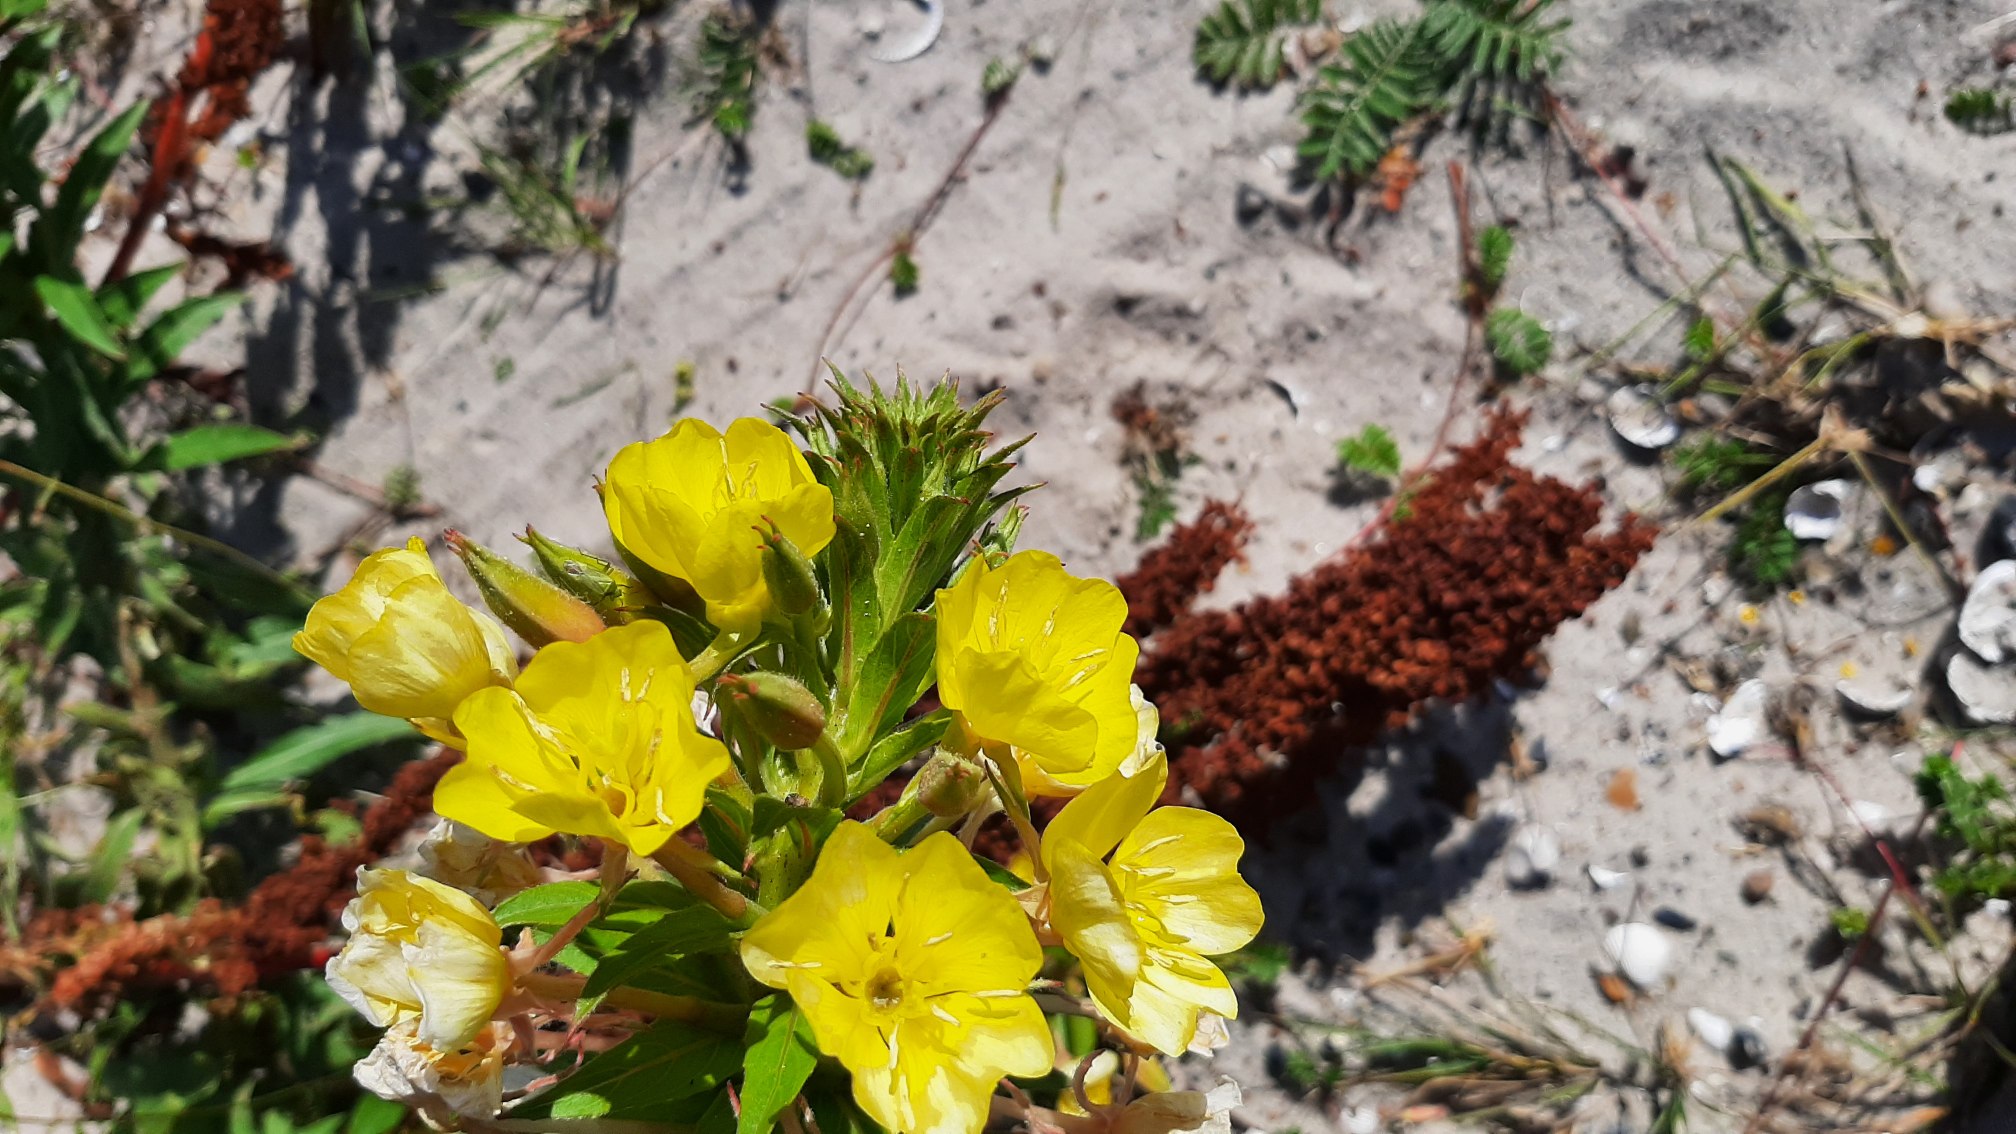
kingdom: Plantae
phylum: Tracheophyta
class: Magnoliopsida
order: Myrtales
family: Onagraceae
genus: Oenothera
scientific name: Oenothera ammophila
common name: Klit-natlys
